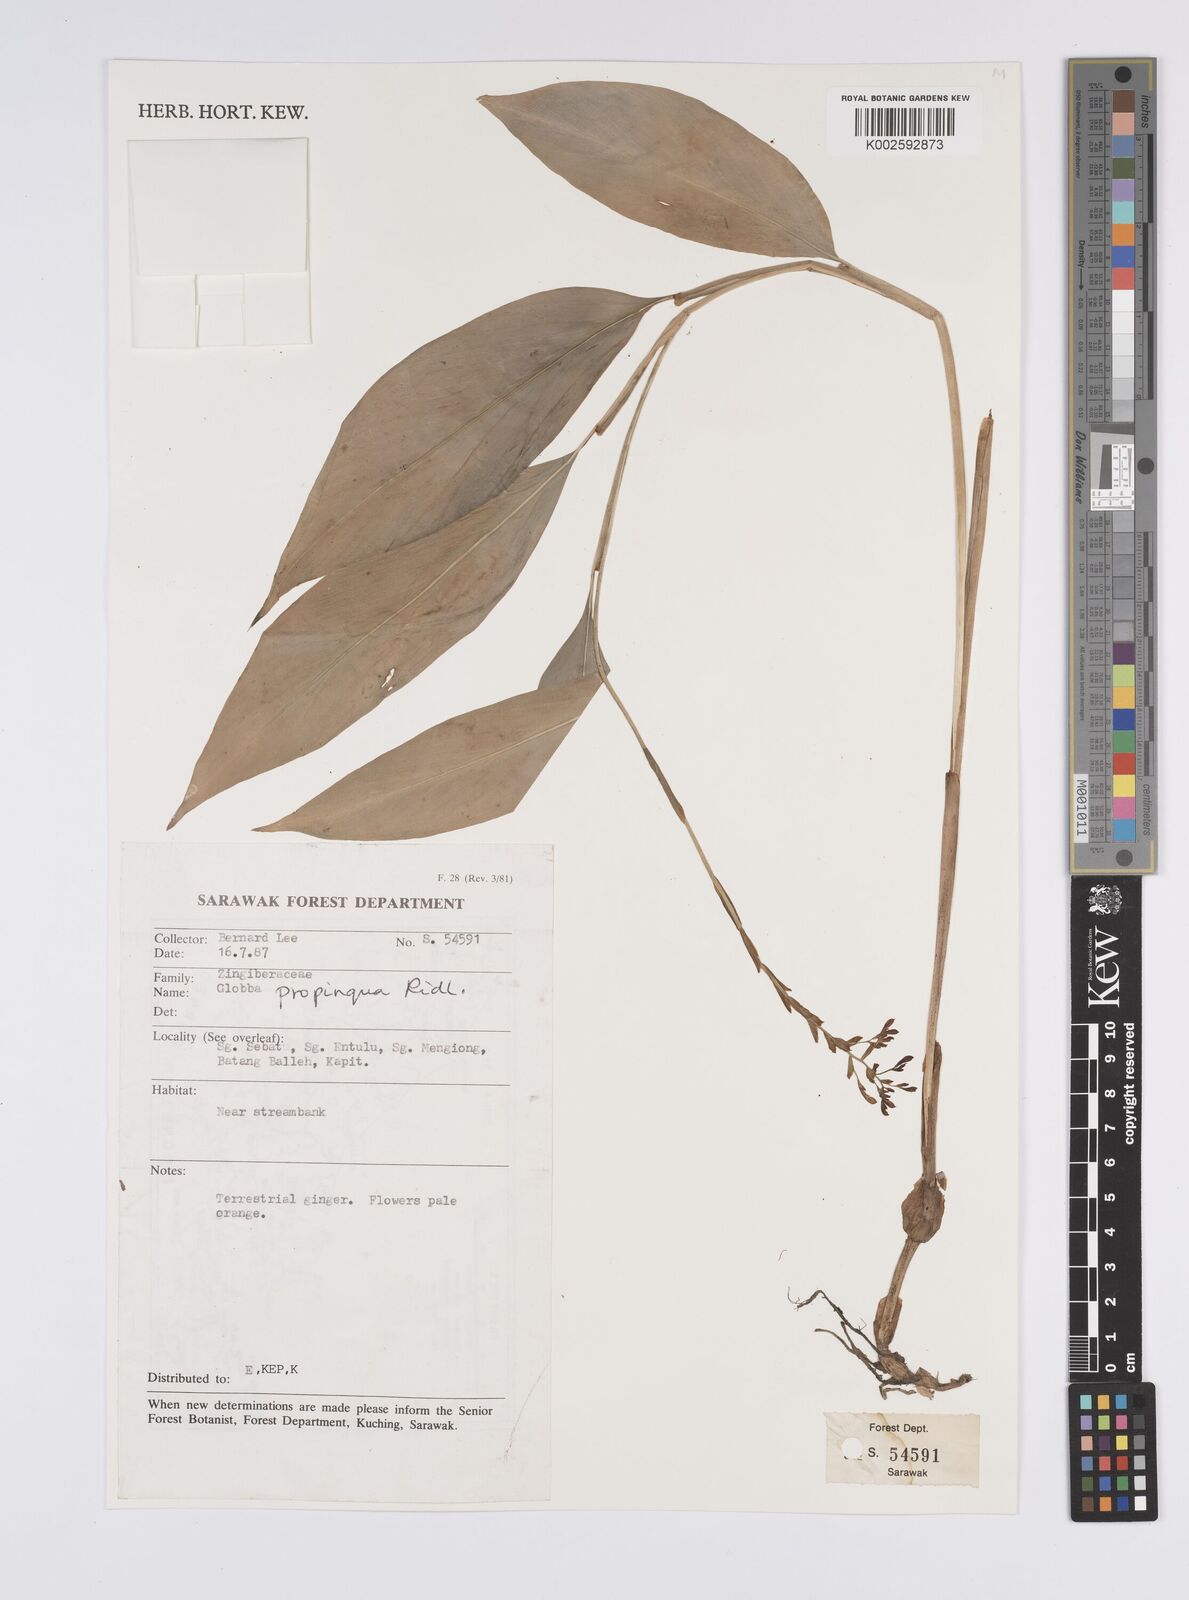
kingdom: Plantae
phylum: Tracheophyta
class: Liliopsida
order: Zingiberales
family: Zingiberaceae
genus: Globba
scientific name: Globba propinqua
